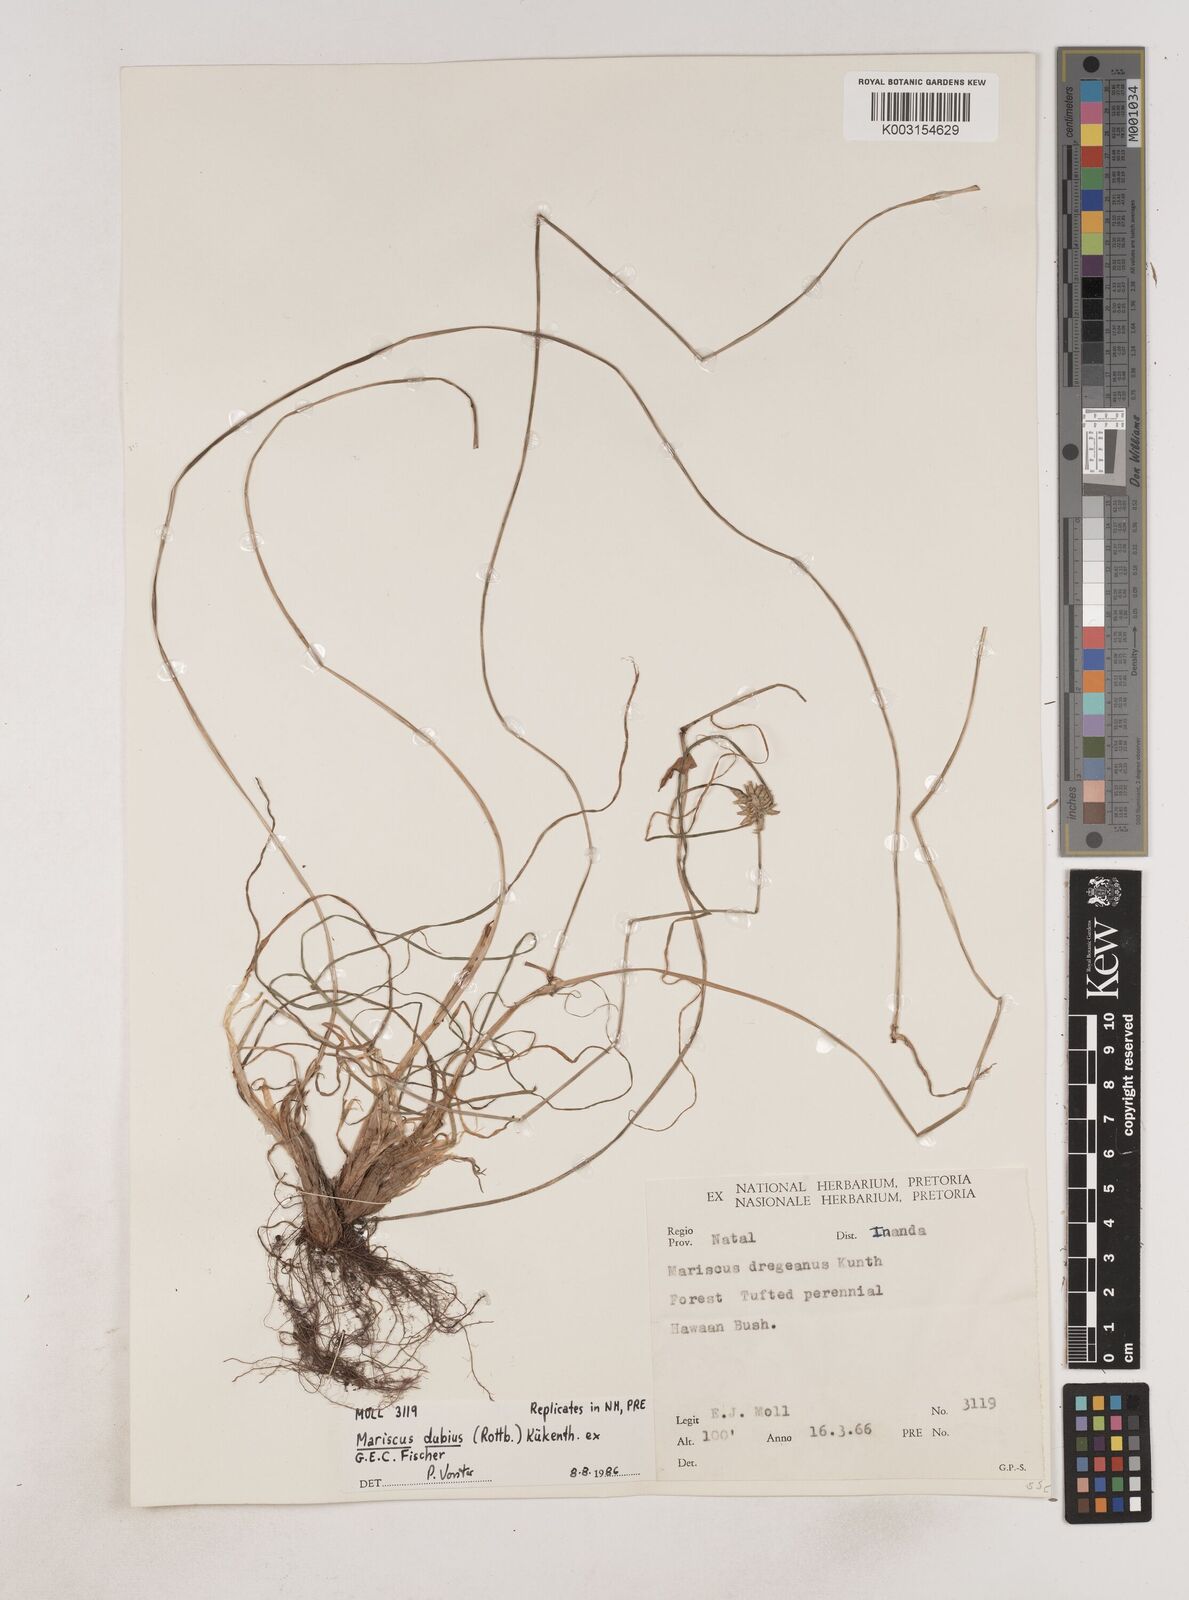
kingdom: Plantae
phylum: Tracheophyta
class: Liliopsida
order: Poales
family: Cyperaceae
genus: Cyperus
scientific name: Cyperus dubius
